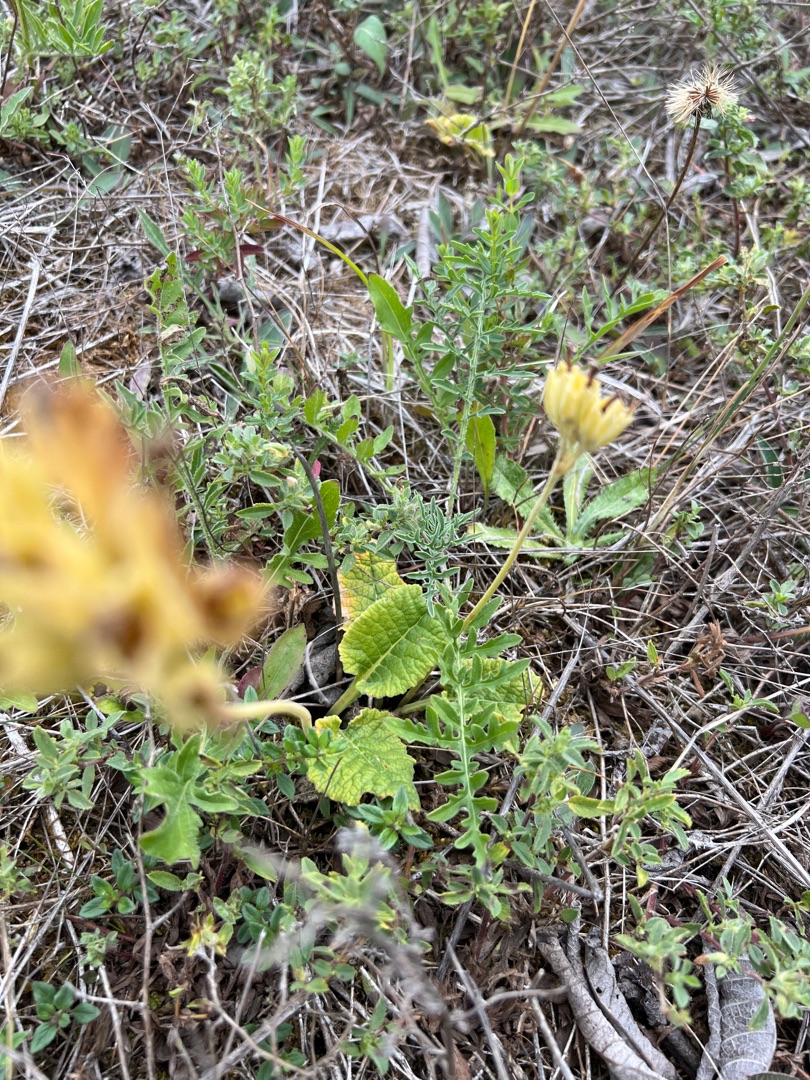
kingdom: Plantae
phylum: Tracheophyta
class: Magnoliopsida
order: Ericales
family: Primulaceae
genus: Primula
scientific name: Primula veris
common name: Hulkravet kodriver
